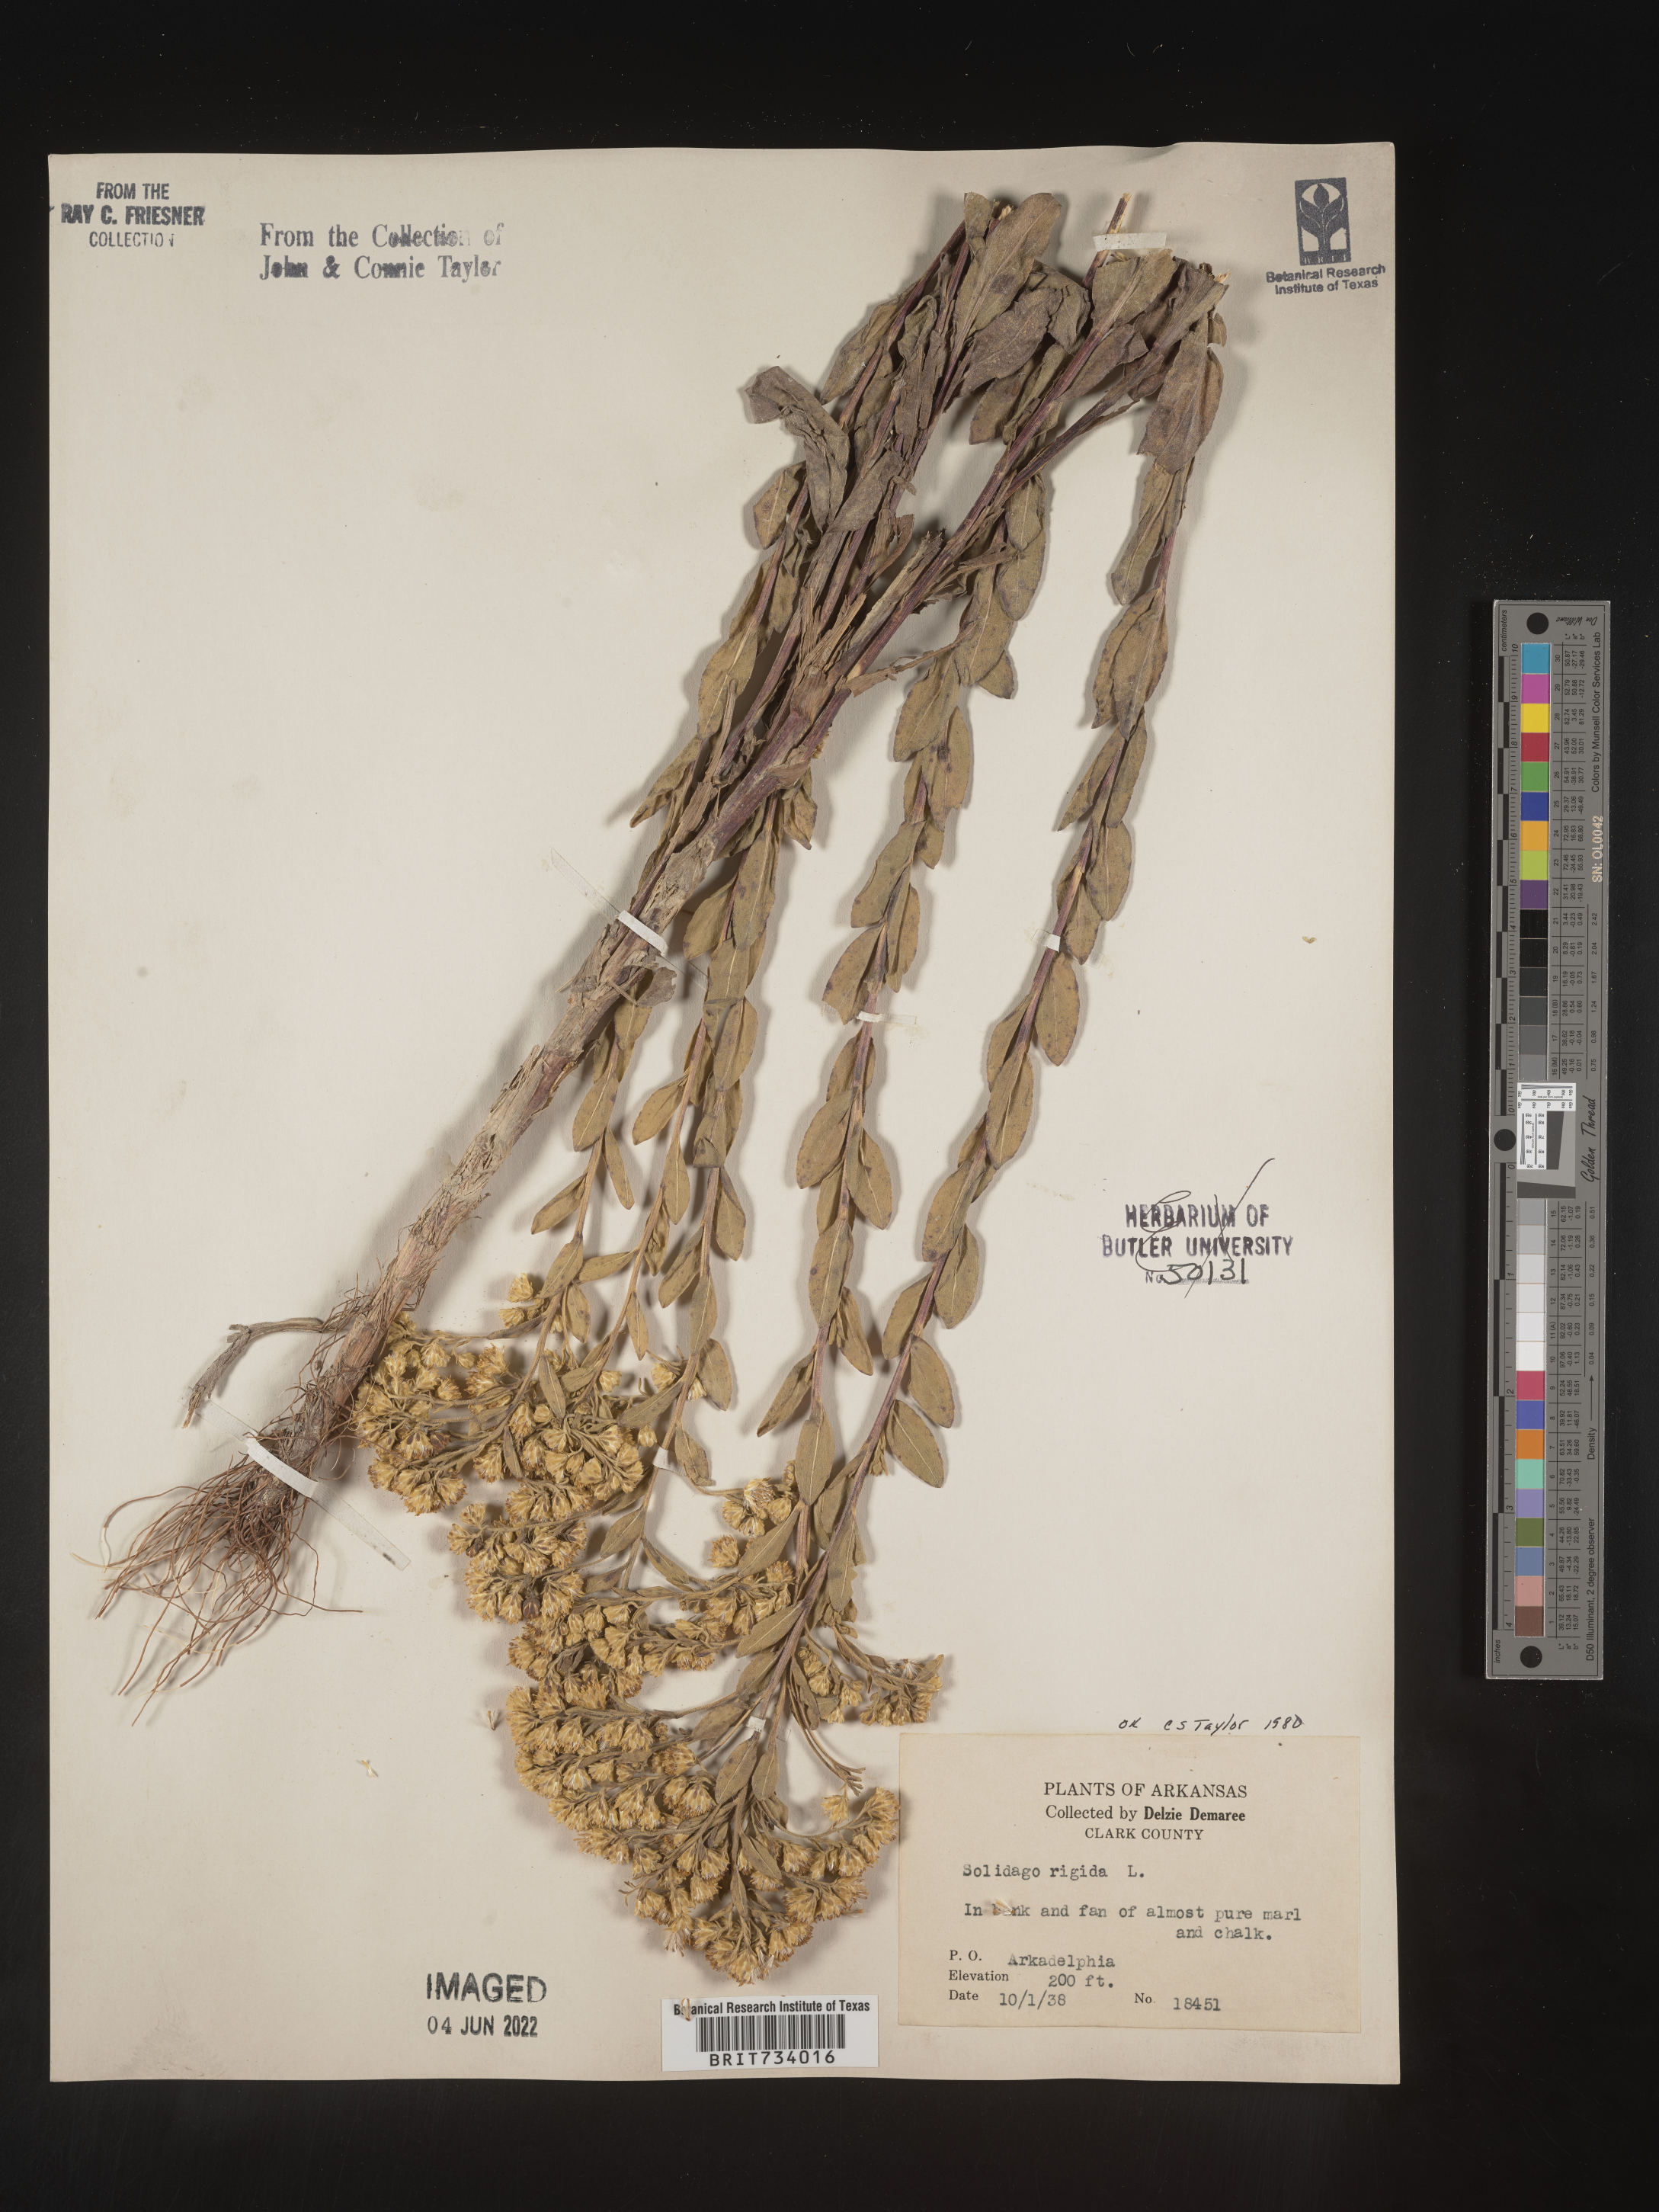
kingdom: Plantae
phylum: Tracheophyta
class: Magnoliopsida
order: Asterales
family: Asteraceae
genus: Solidago
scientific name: Solidago rigida
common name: Rigid goldenrod
